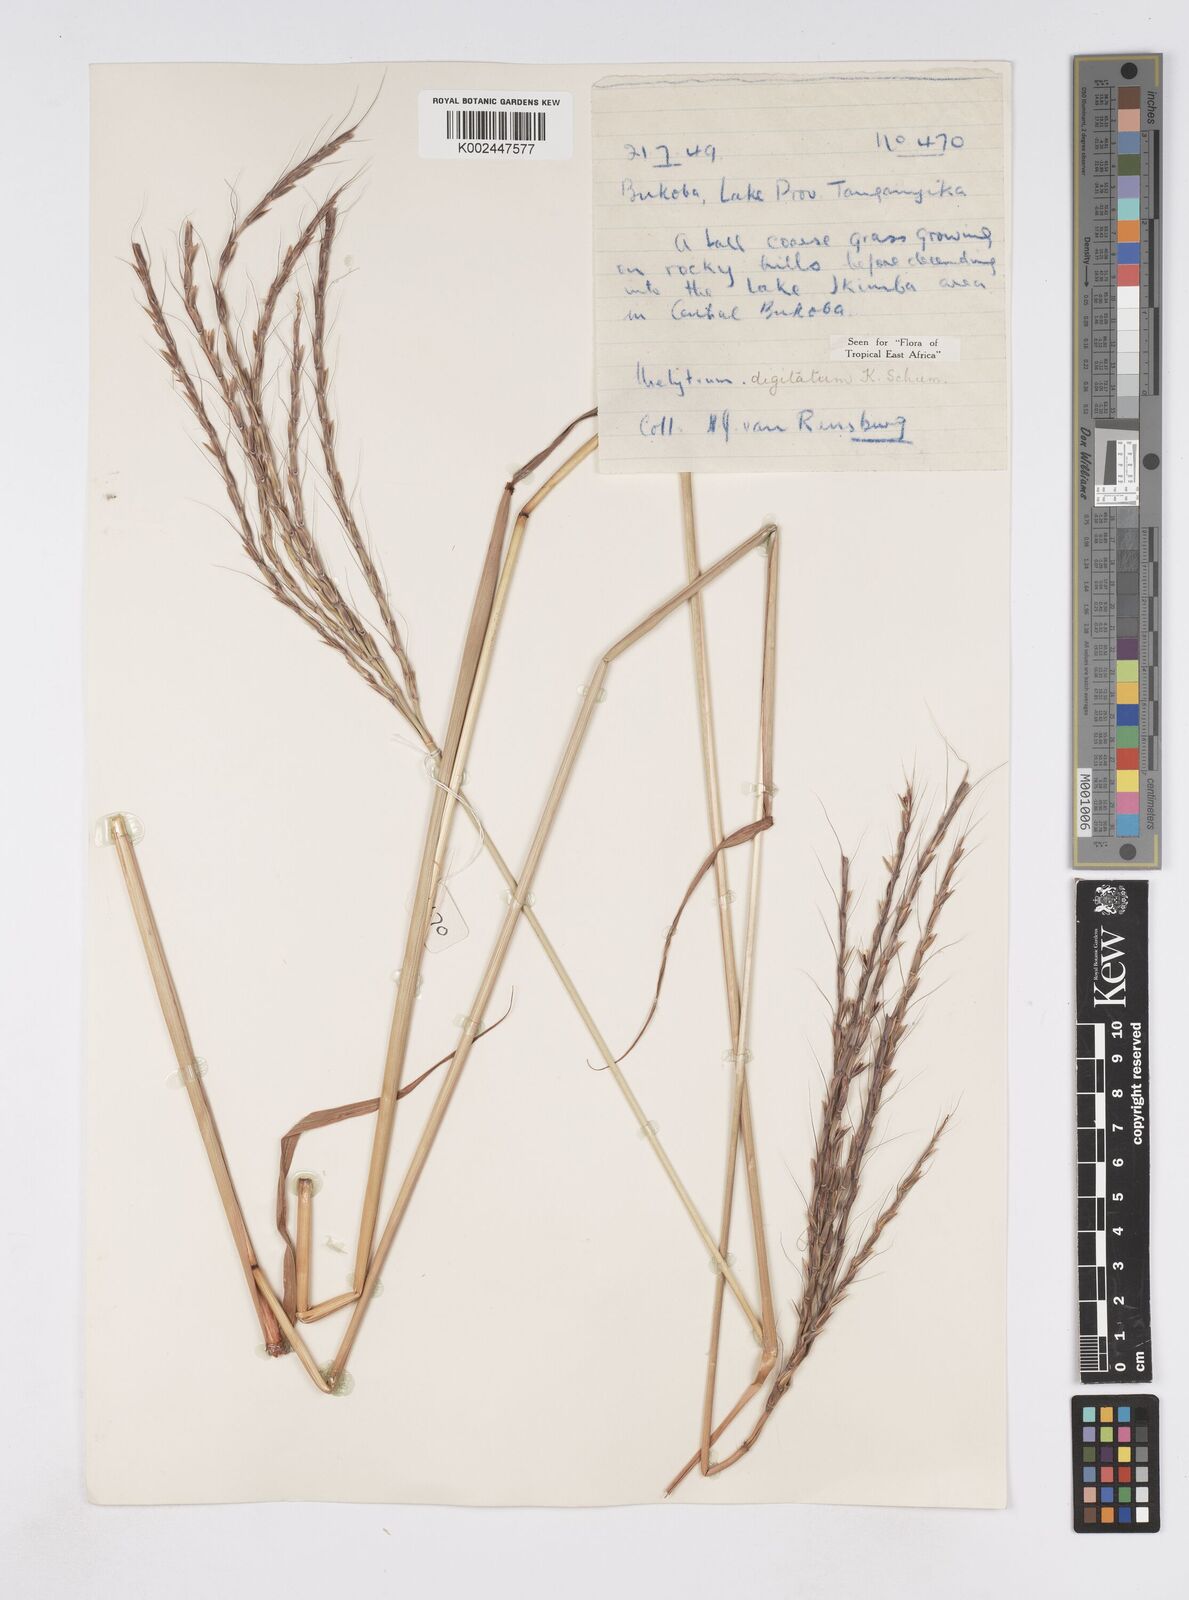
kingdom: Plantae
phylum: Tracheophyta
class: Liliopsida
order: Poales
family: Poaceae
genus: Urelytrum
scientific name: Urelytrum digitatum
